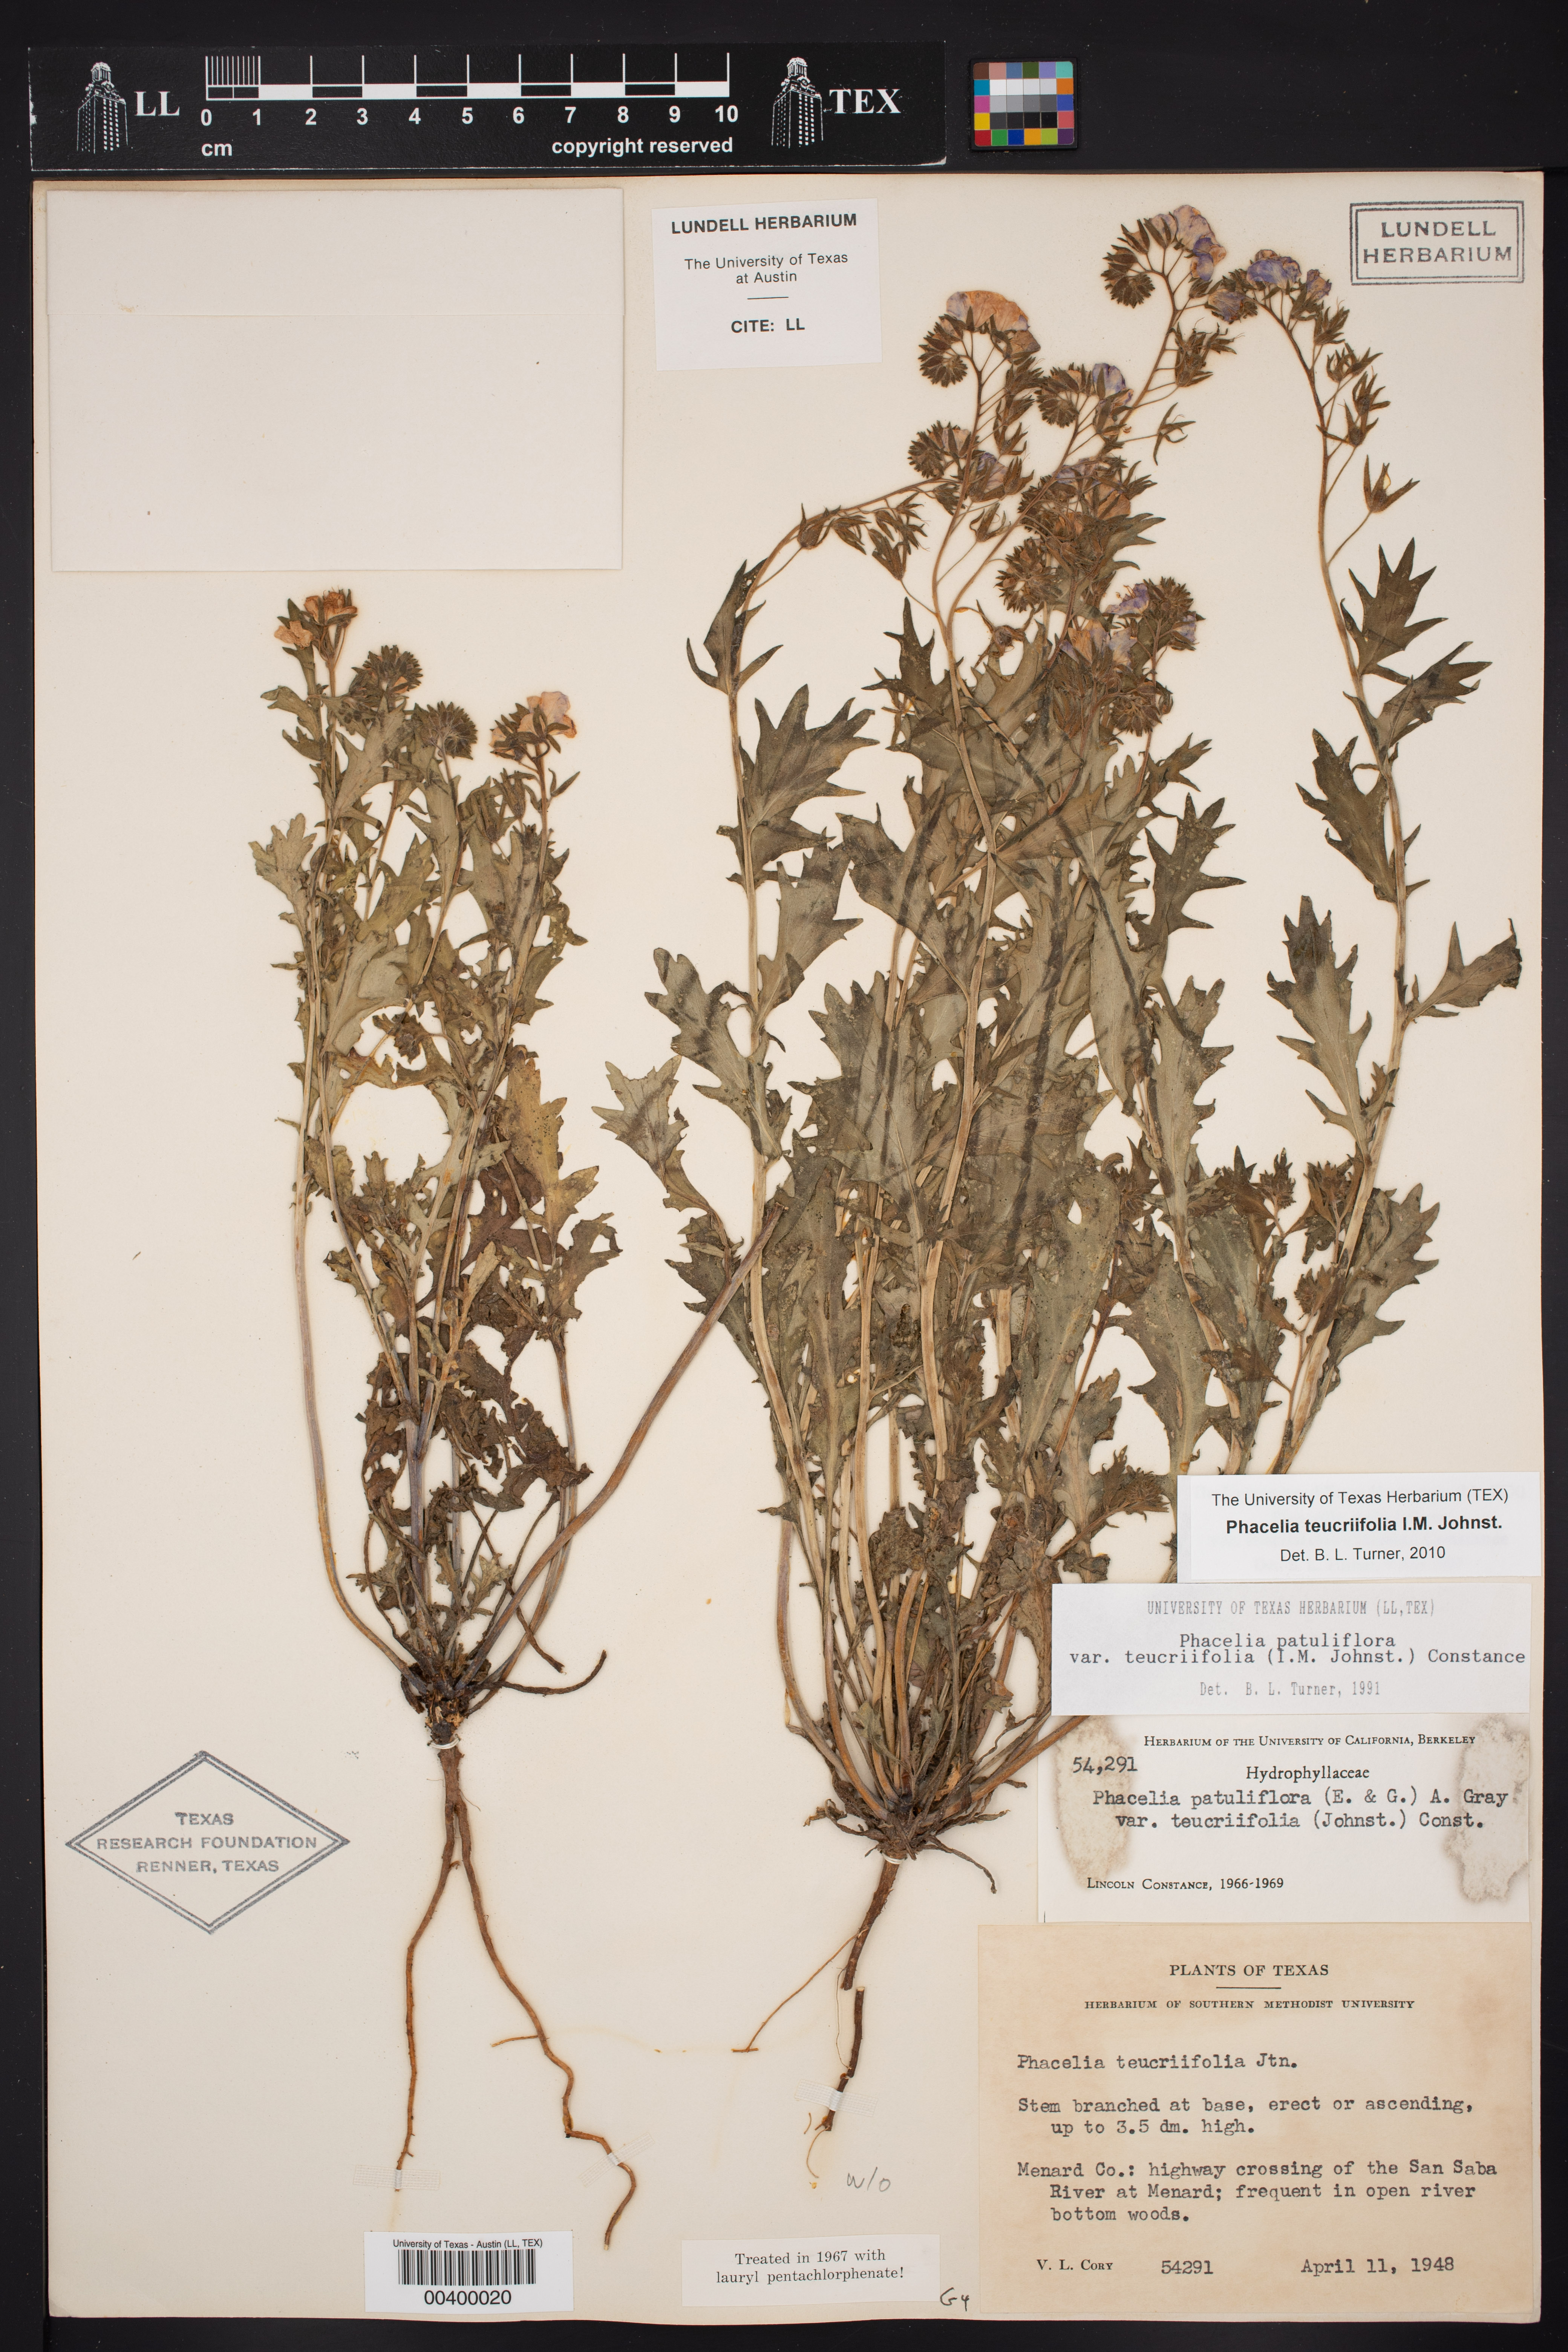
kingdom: Plantae
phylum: Tracheophyta
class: Magnoliopsida
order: Boraginales
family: Hydrophyllaceae
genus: Phacelia
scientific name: Phacelia patuliflora
